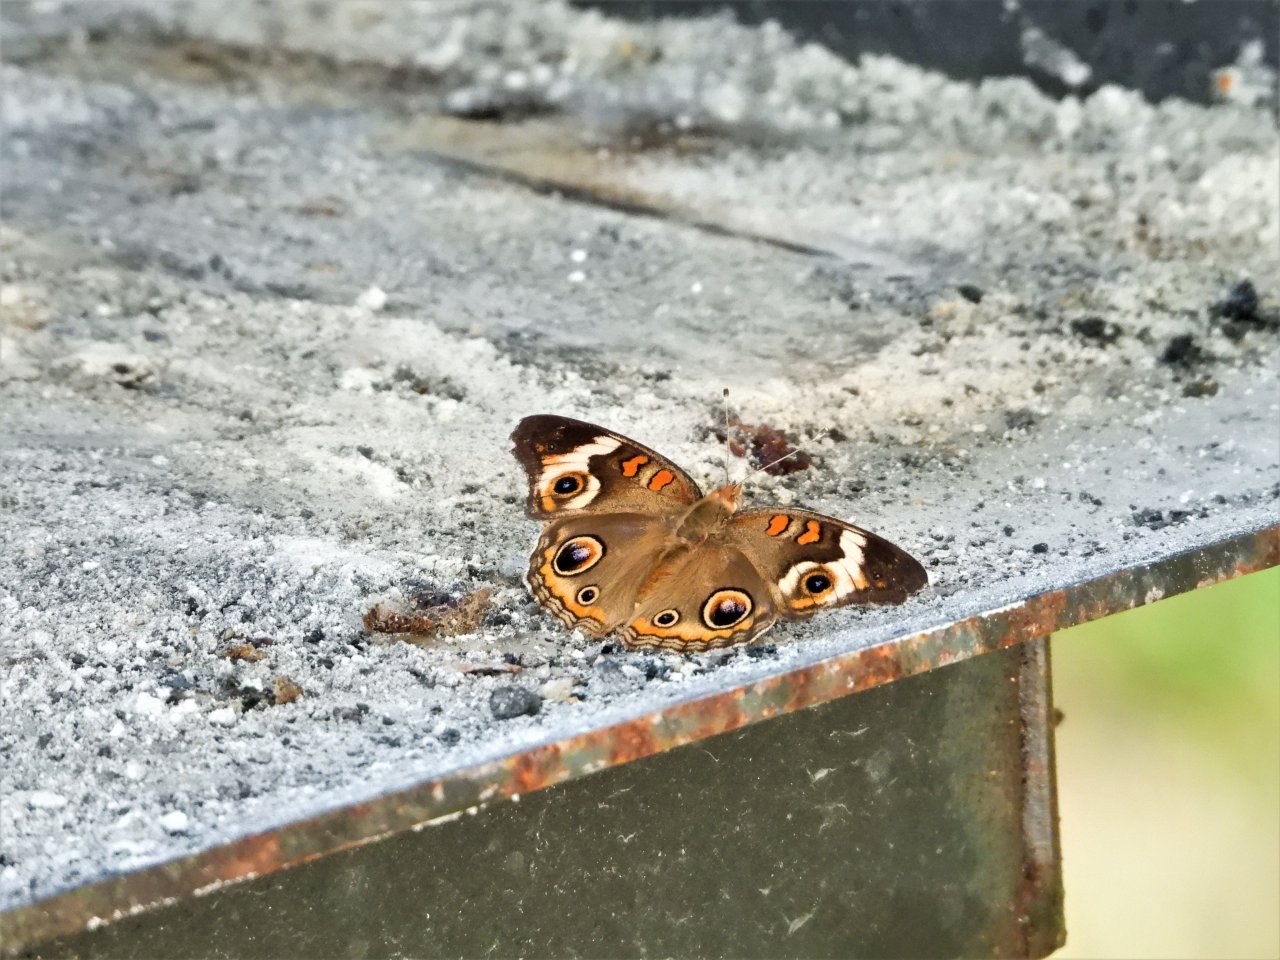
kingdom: Animalia
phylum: Arthropoda
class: Insecta
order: Lepidoptera
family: Nymphalidae
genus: Junonia
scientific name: Junonia coenia
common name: Common Buckeye
